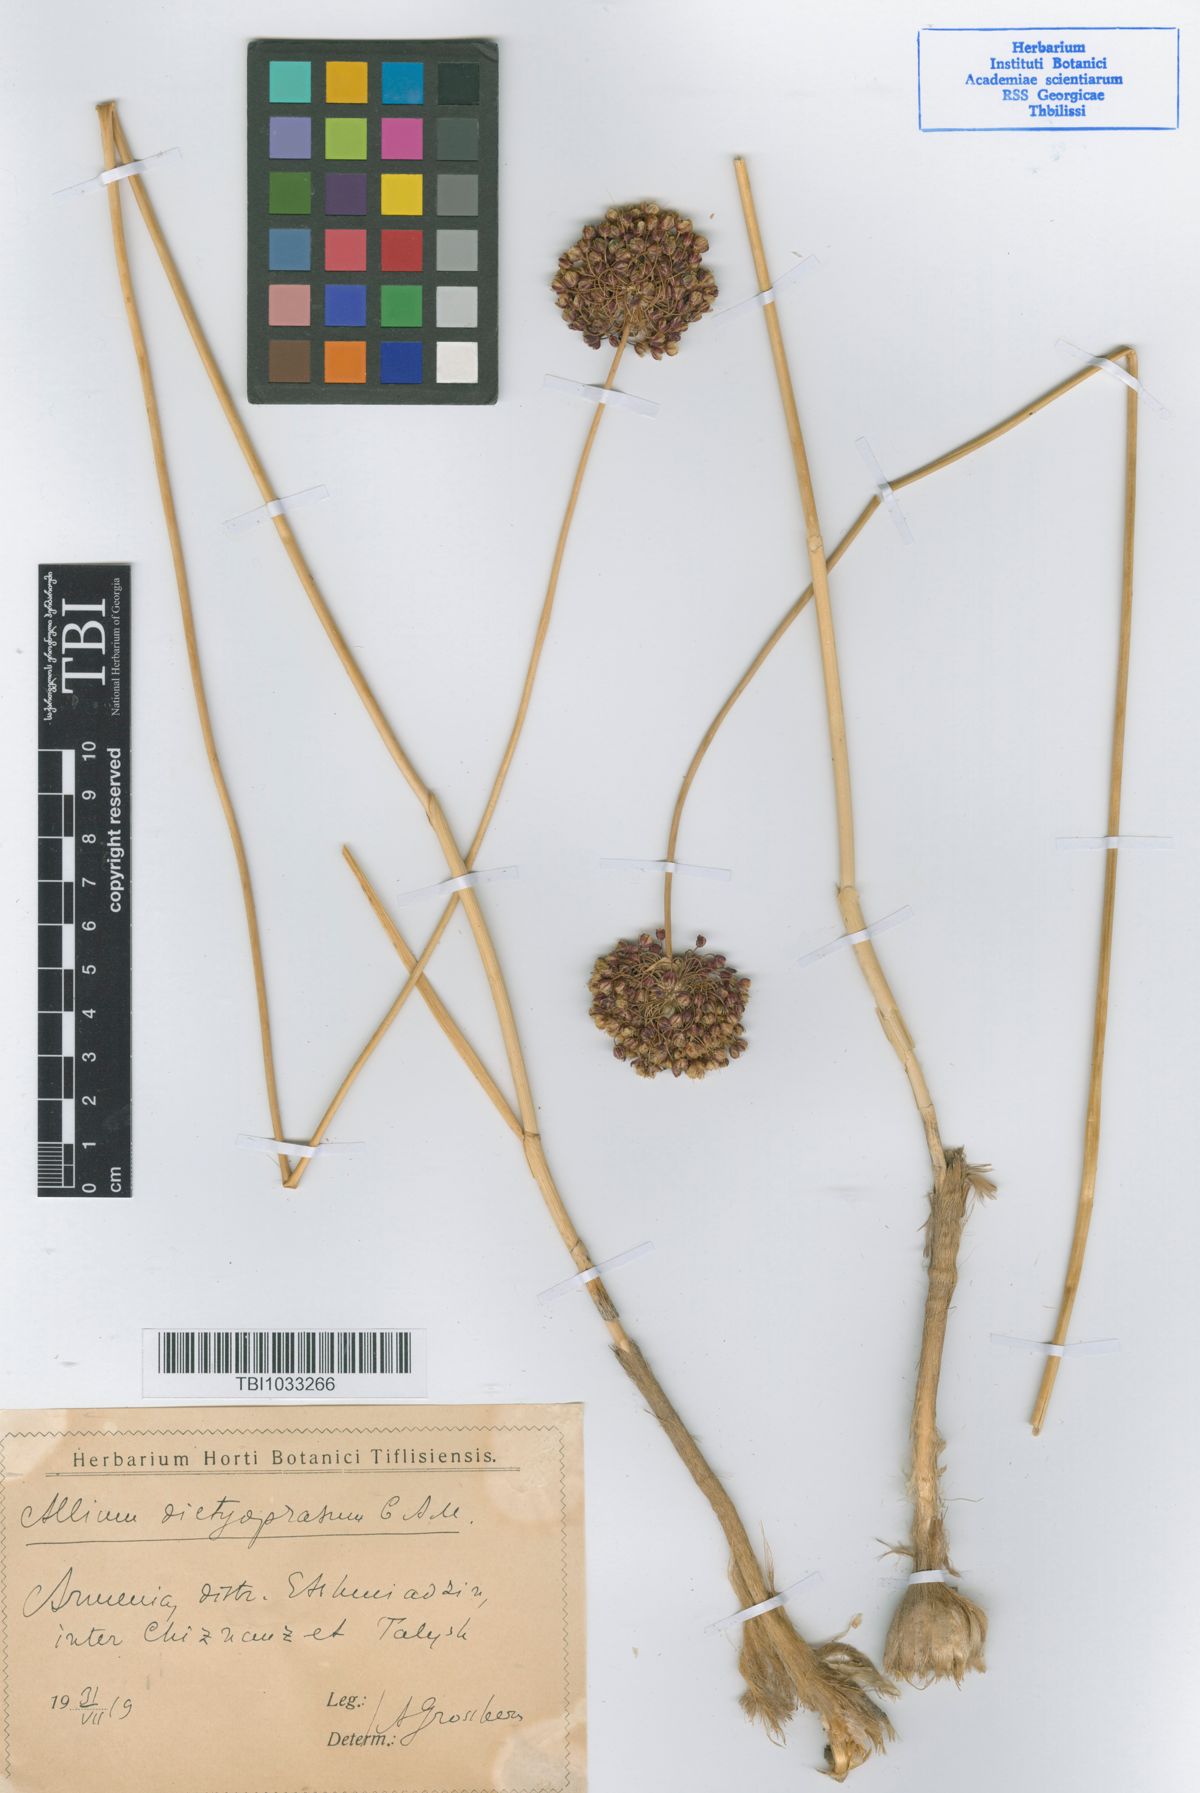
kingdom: Plantae
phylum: Tracheophyta
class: Liliopsida
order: Asparagales
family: Amaryllidaceae
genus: Allium
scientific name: Allium dictyoprasum
